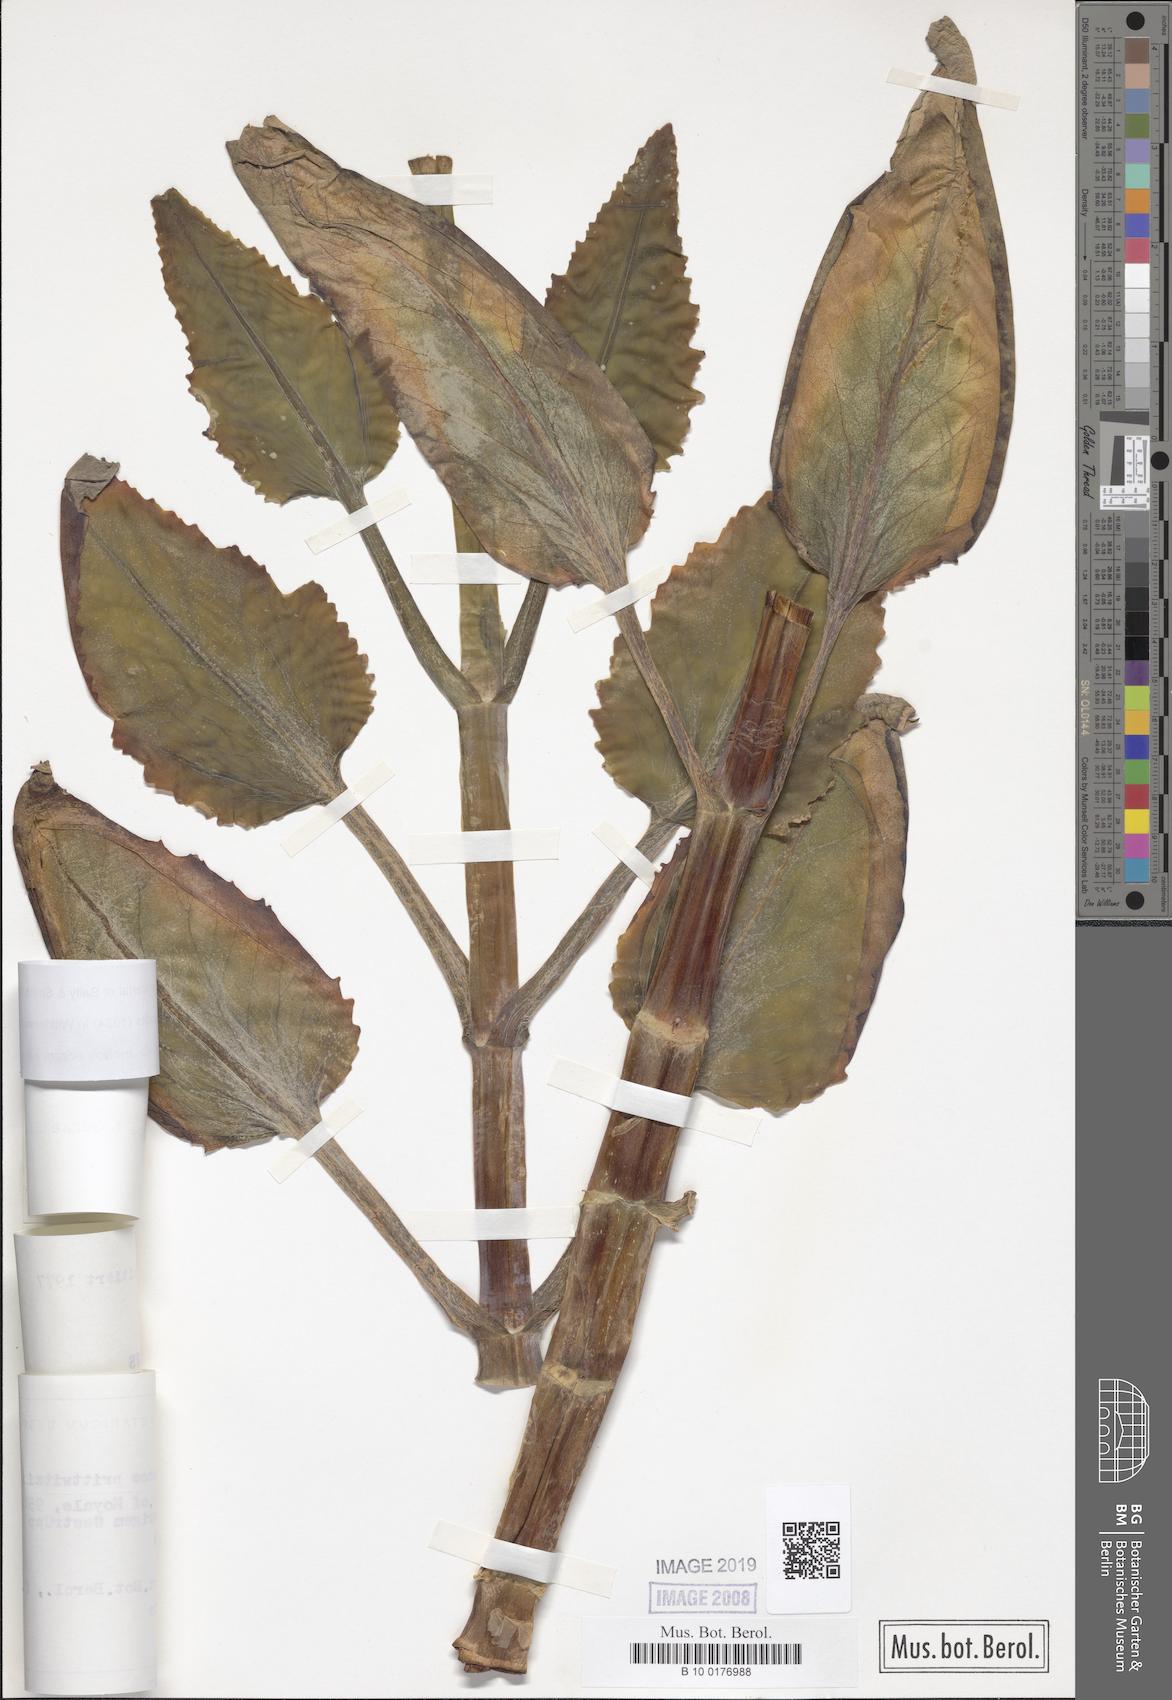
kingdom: Plantae
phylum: Tracheophyta
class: Magnoliopsida
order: Saxifragales
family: Crassulaceae
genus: Kalanchoe
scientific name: Kalanchoe boranae
